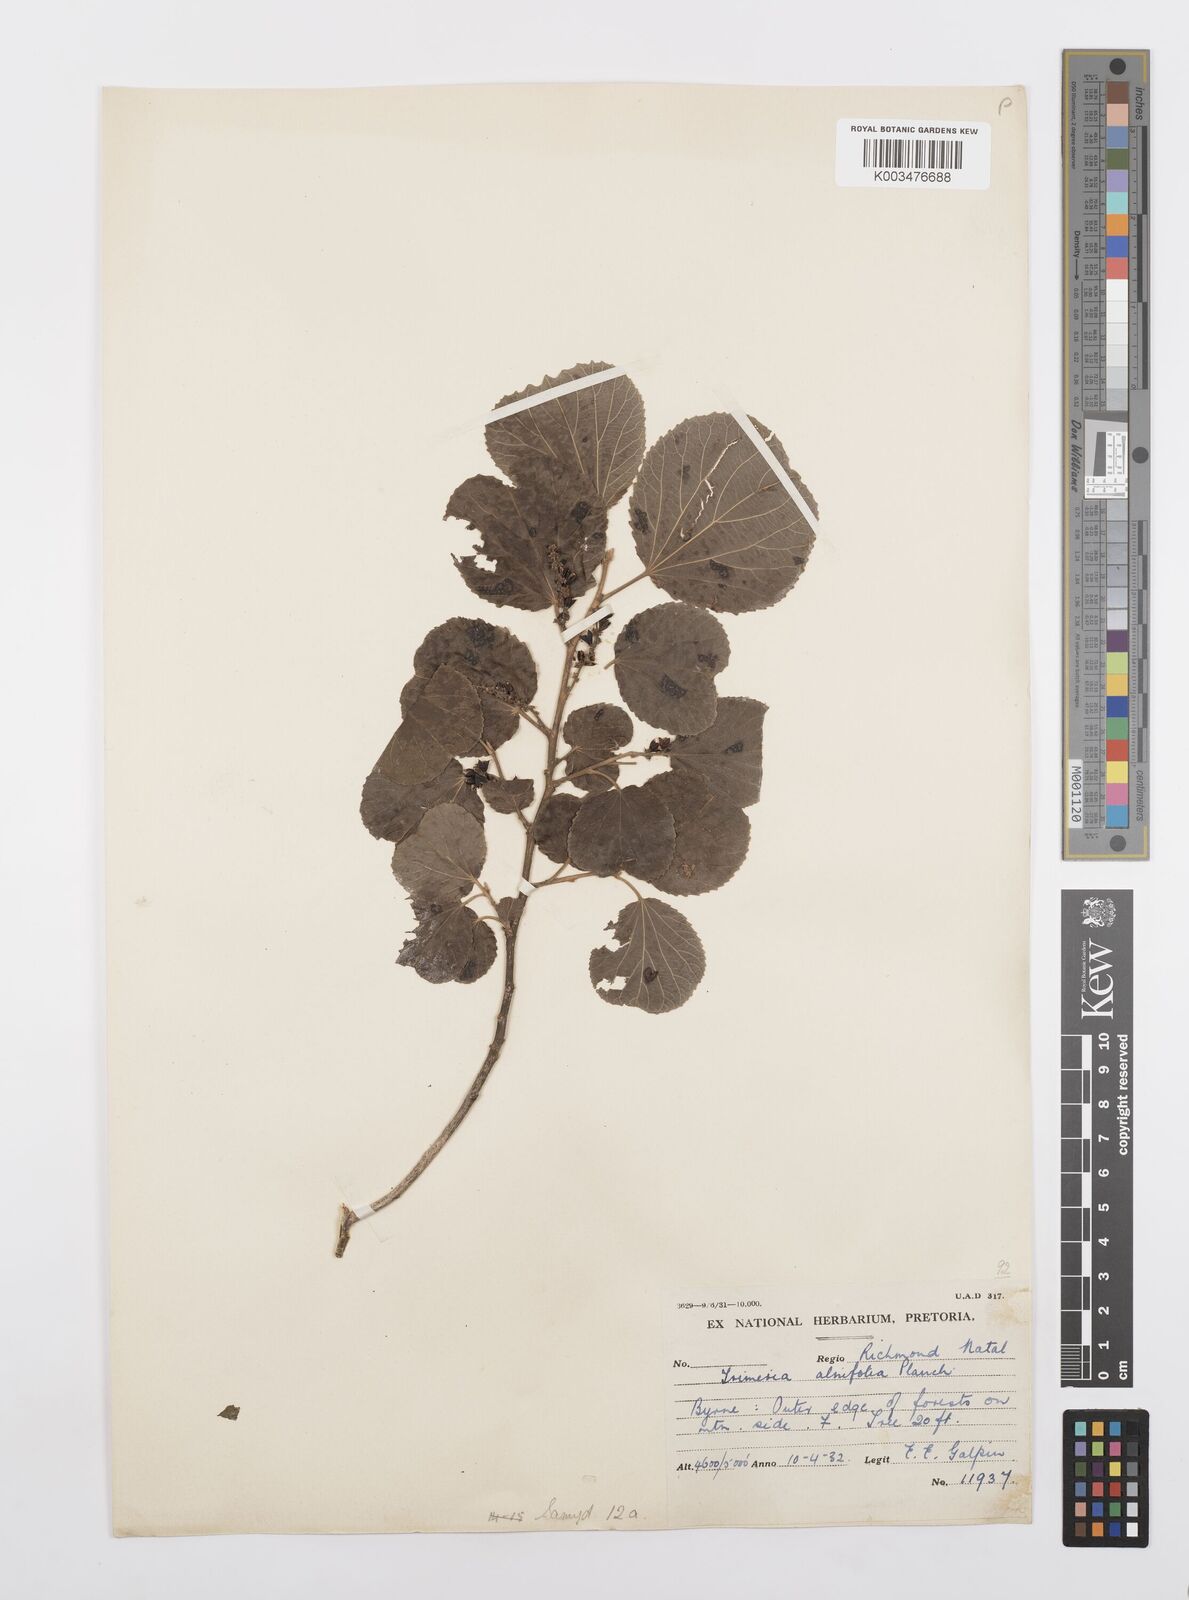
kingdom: Plantae
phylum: Tracheophyta
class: Magnoliopsida
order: Malpighiales
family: Salicaceae
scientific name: Salicaceae
